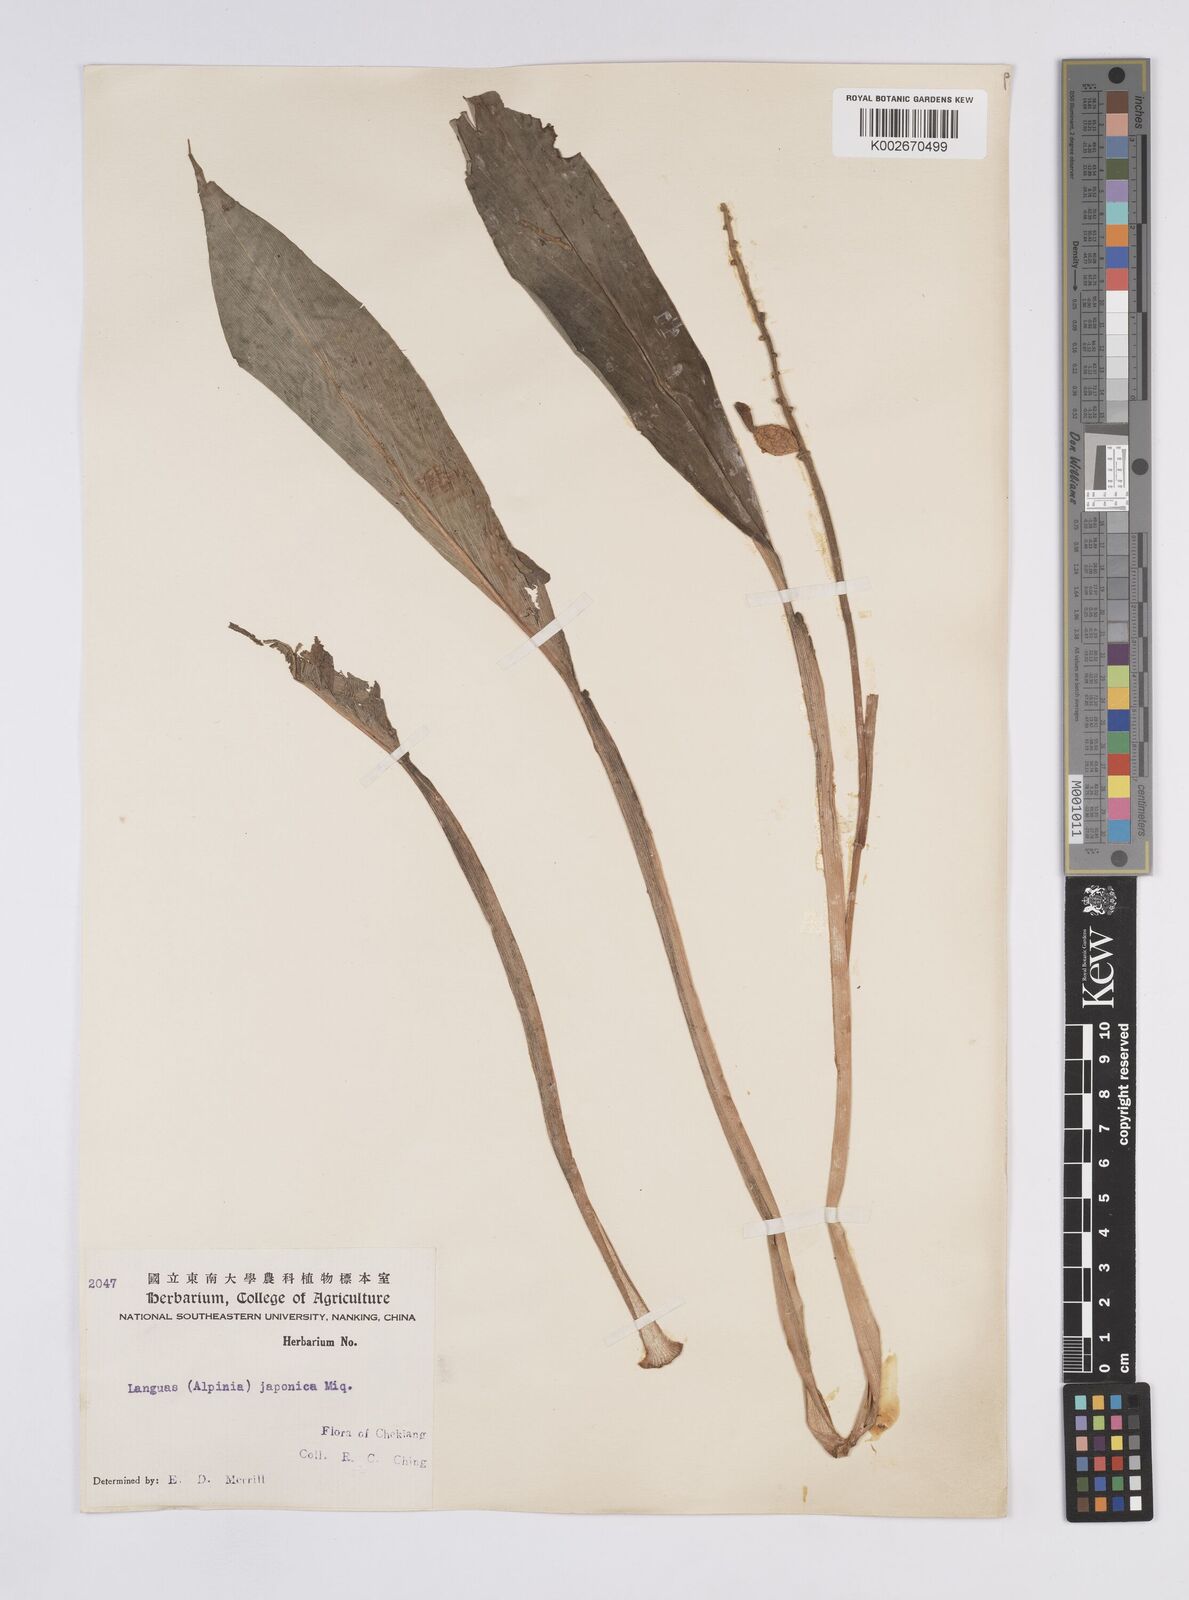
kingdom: Plantae
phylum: Tracheophyta
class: Liliopsida
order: Zingiberales
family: Zingiberaceae
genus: Alpinia
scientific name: Alpinia japonica
